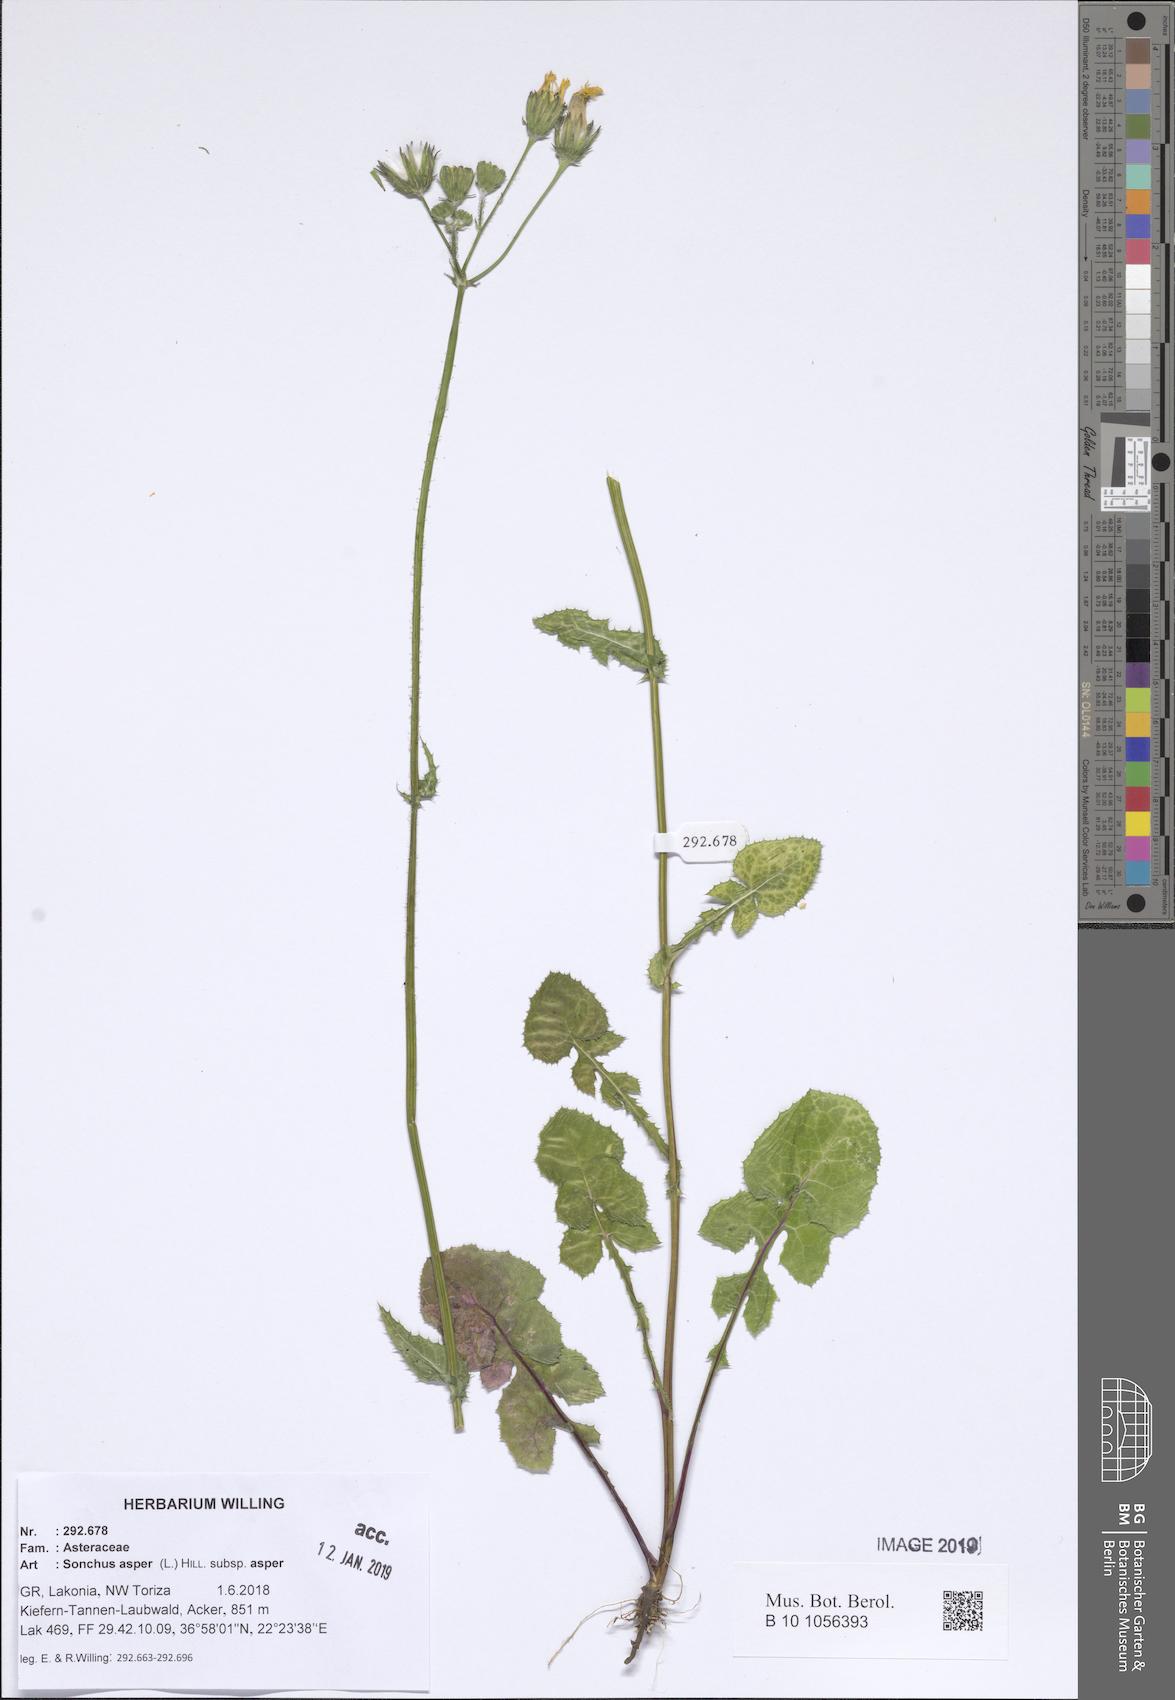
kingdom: Plantae
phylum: Tracheophyta
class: Magnoliopsida
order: Asterales
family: Asteraceae
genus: Sonchus
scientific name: Sonchus asper
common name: Prickly sow-thistle
